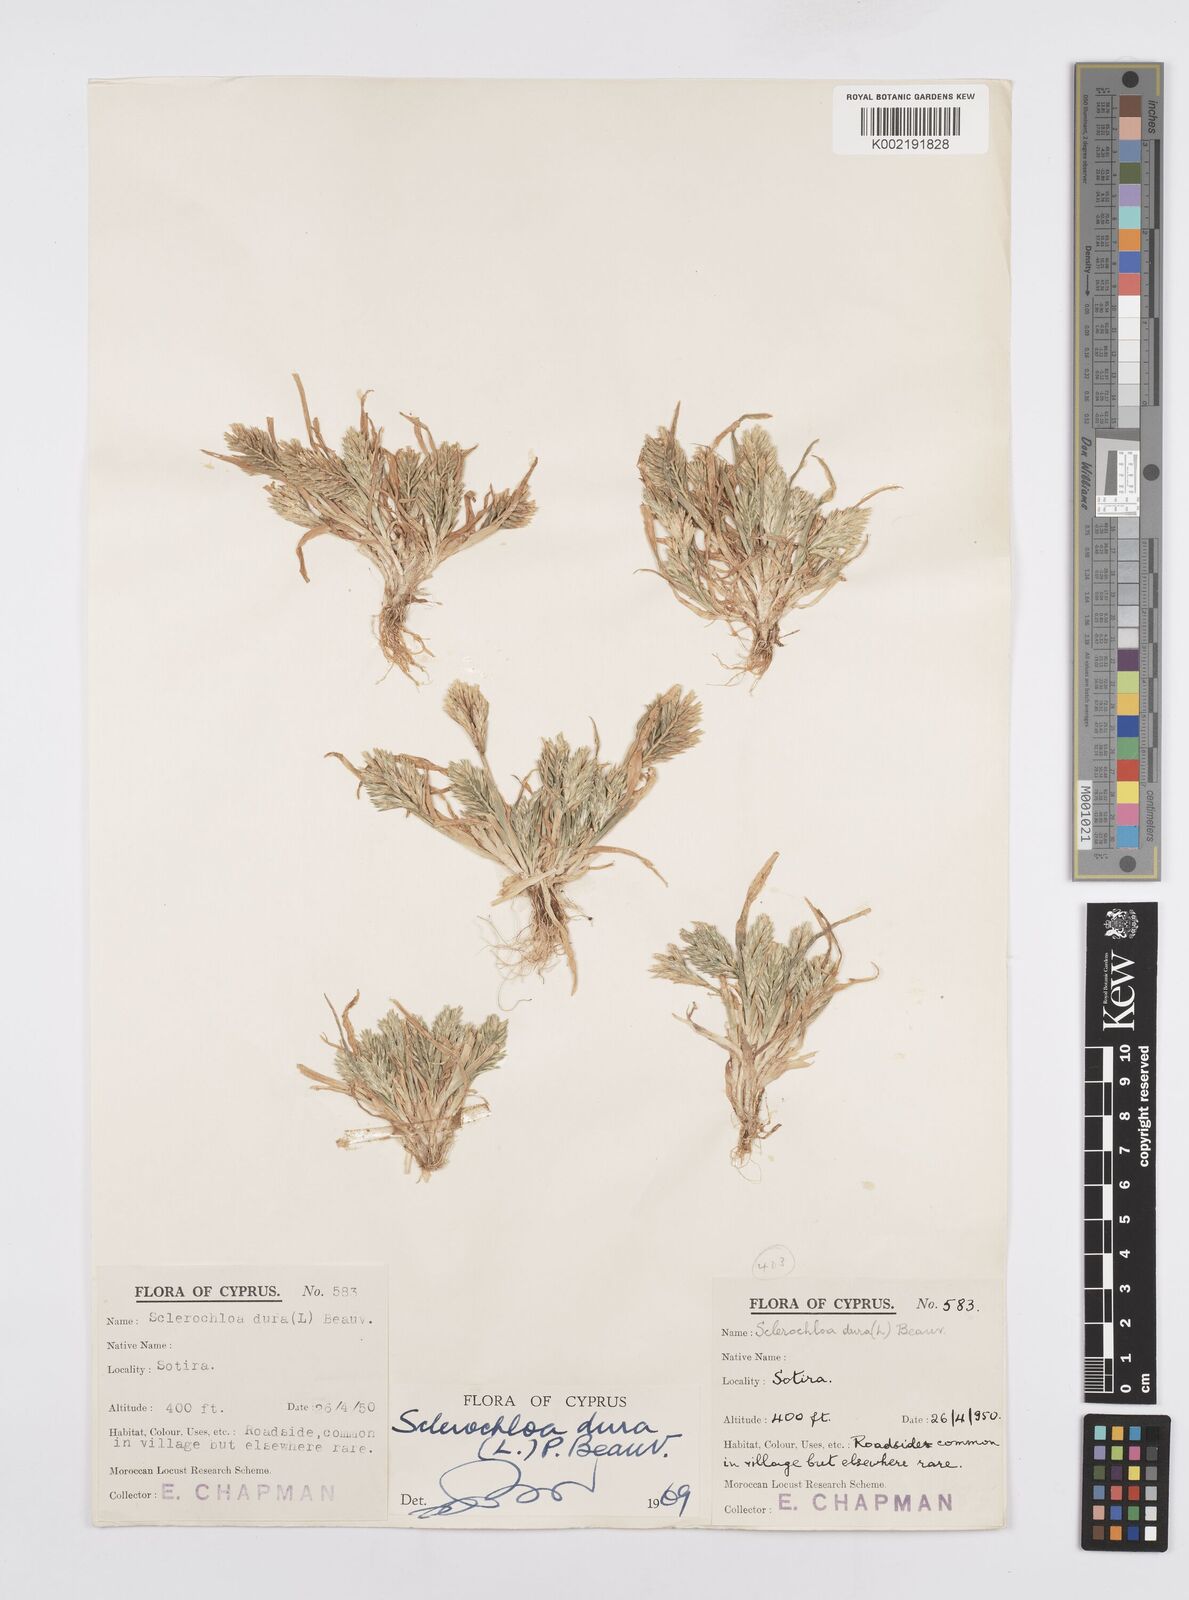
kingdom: Plantae
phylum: Tracheophyta
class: Liliopsida
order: Poales
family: Poaceae
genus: Sclerochloa
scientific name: Sclerochloa dura
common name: Common hardgrass
